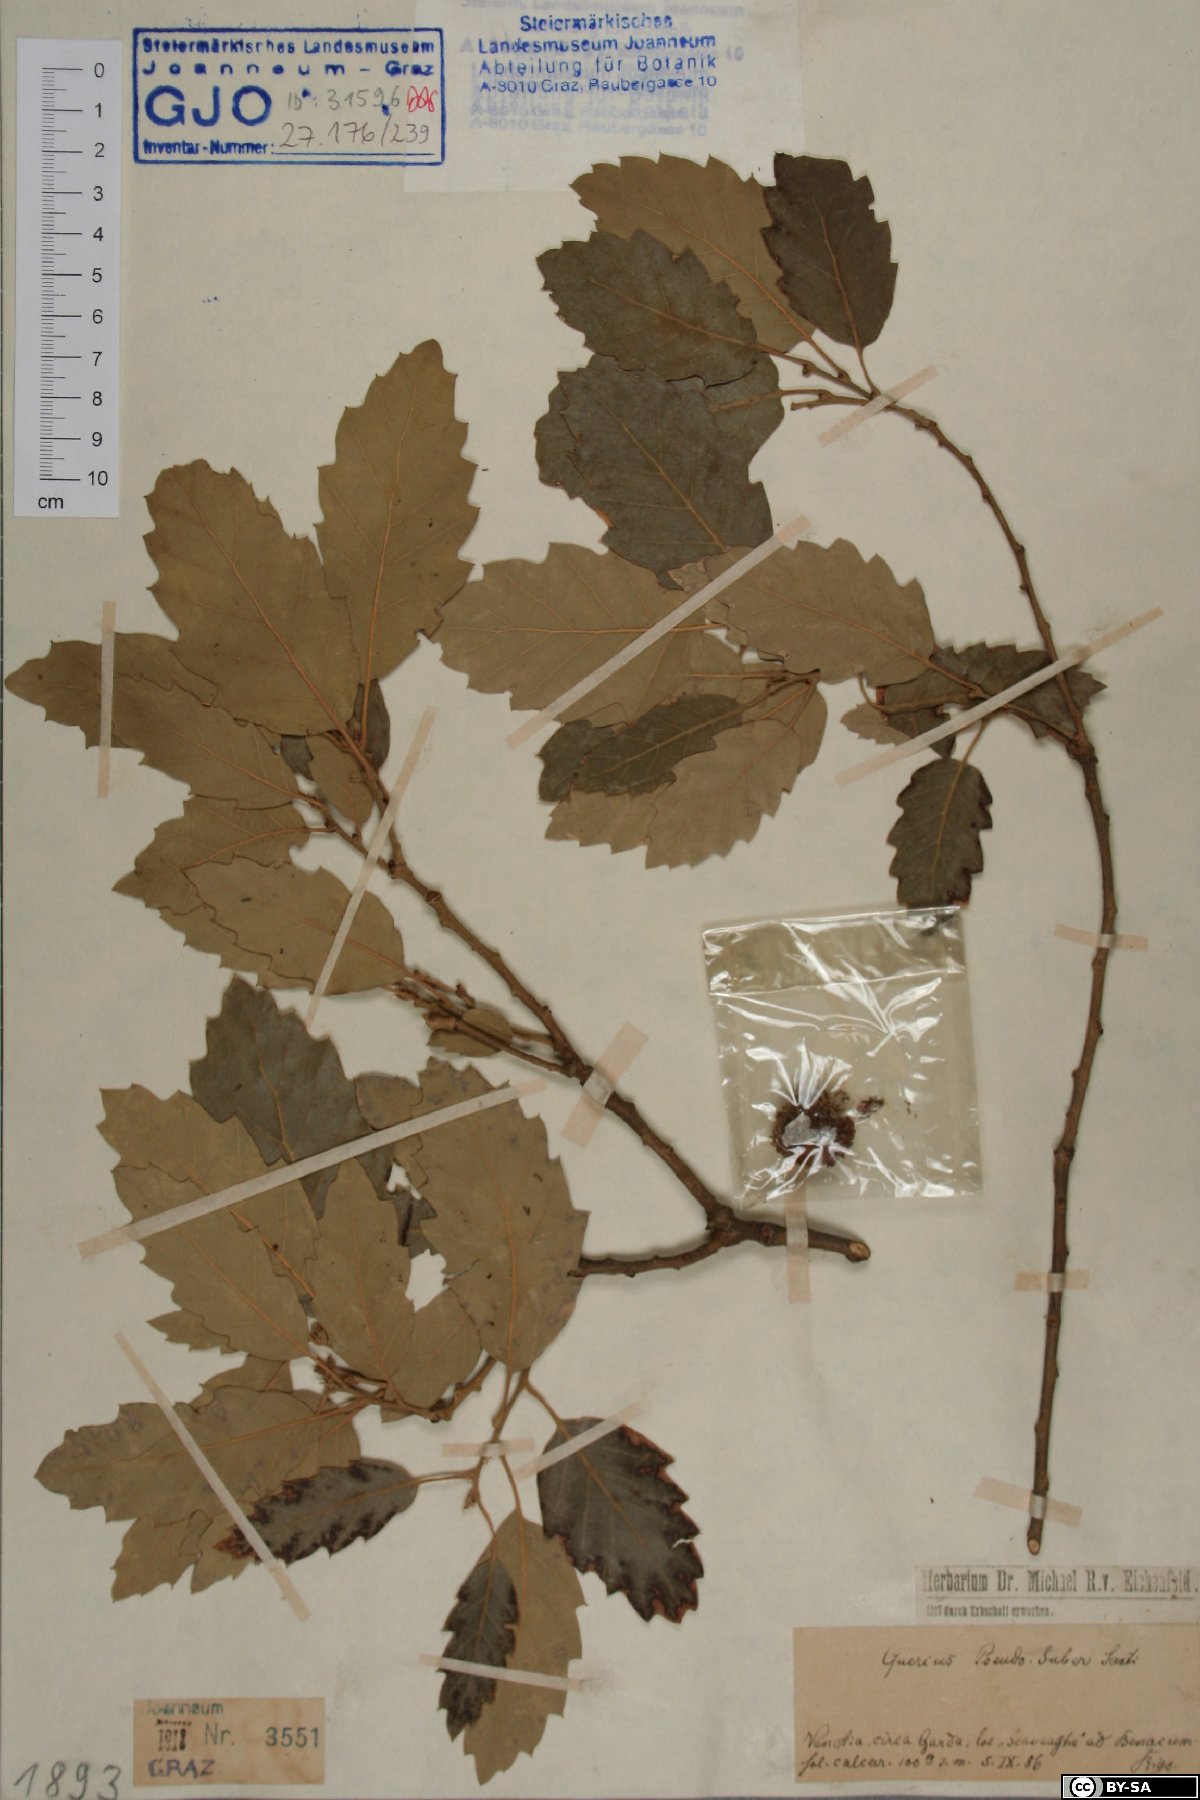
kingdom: Plantae
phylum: Tracheophyta
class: Magnoliopsida
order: Fagales
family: Fagaceae
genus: Quercus
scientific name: Quercus crenata
